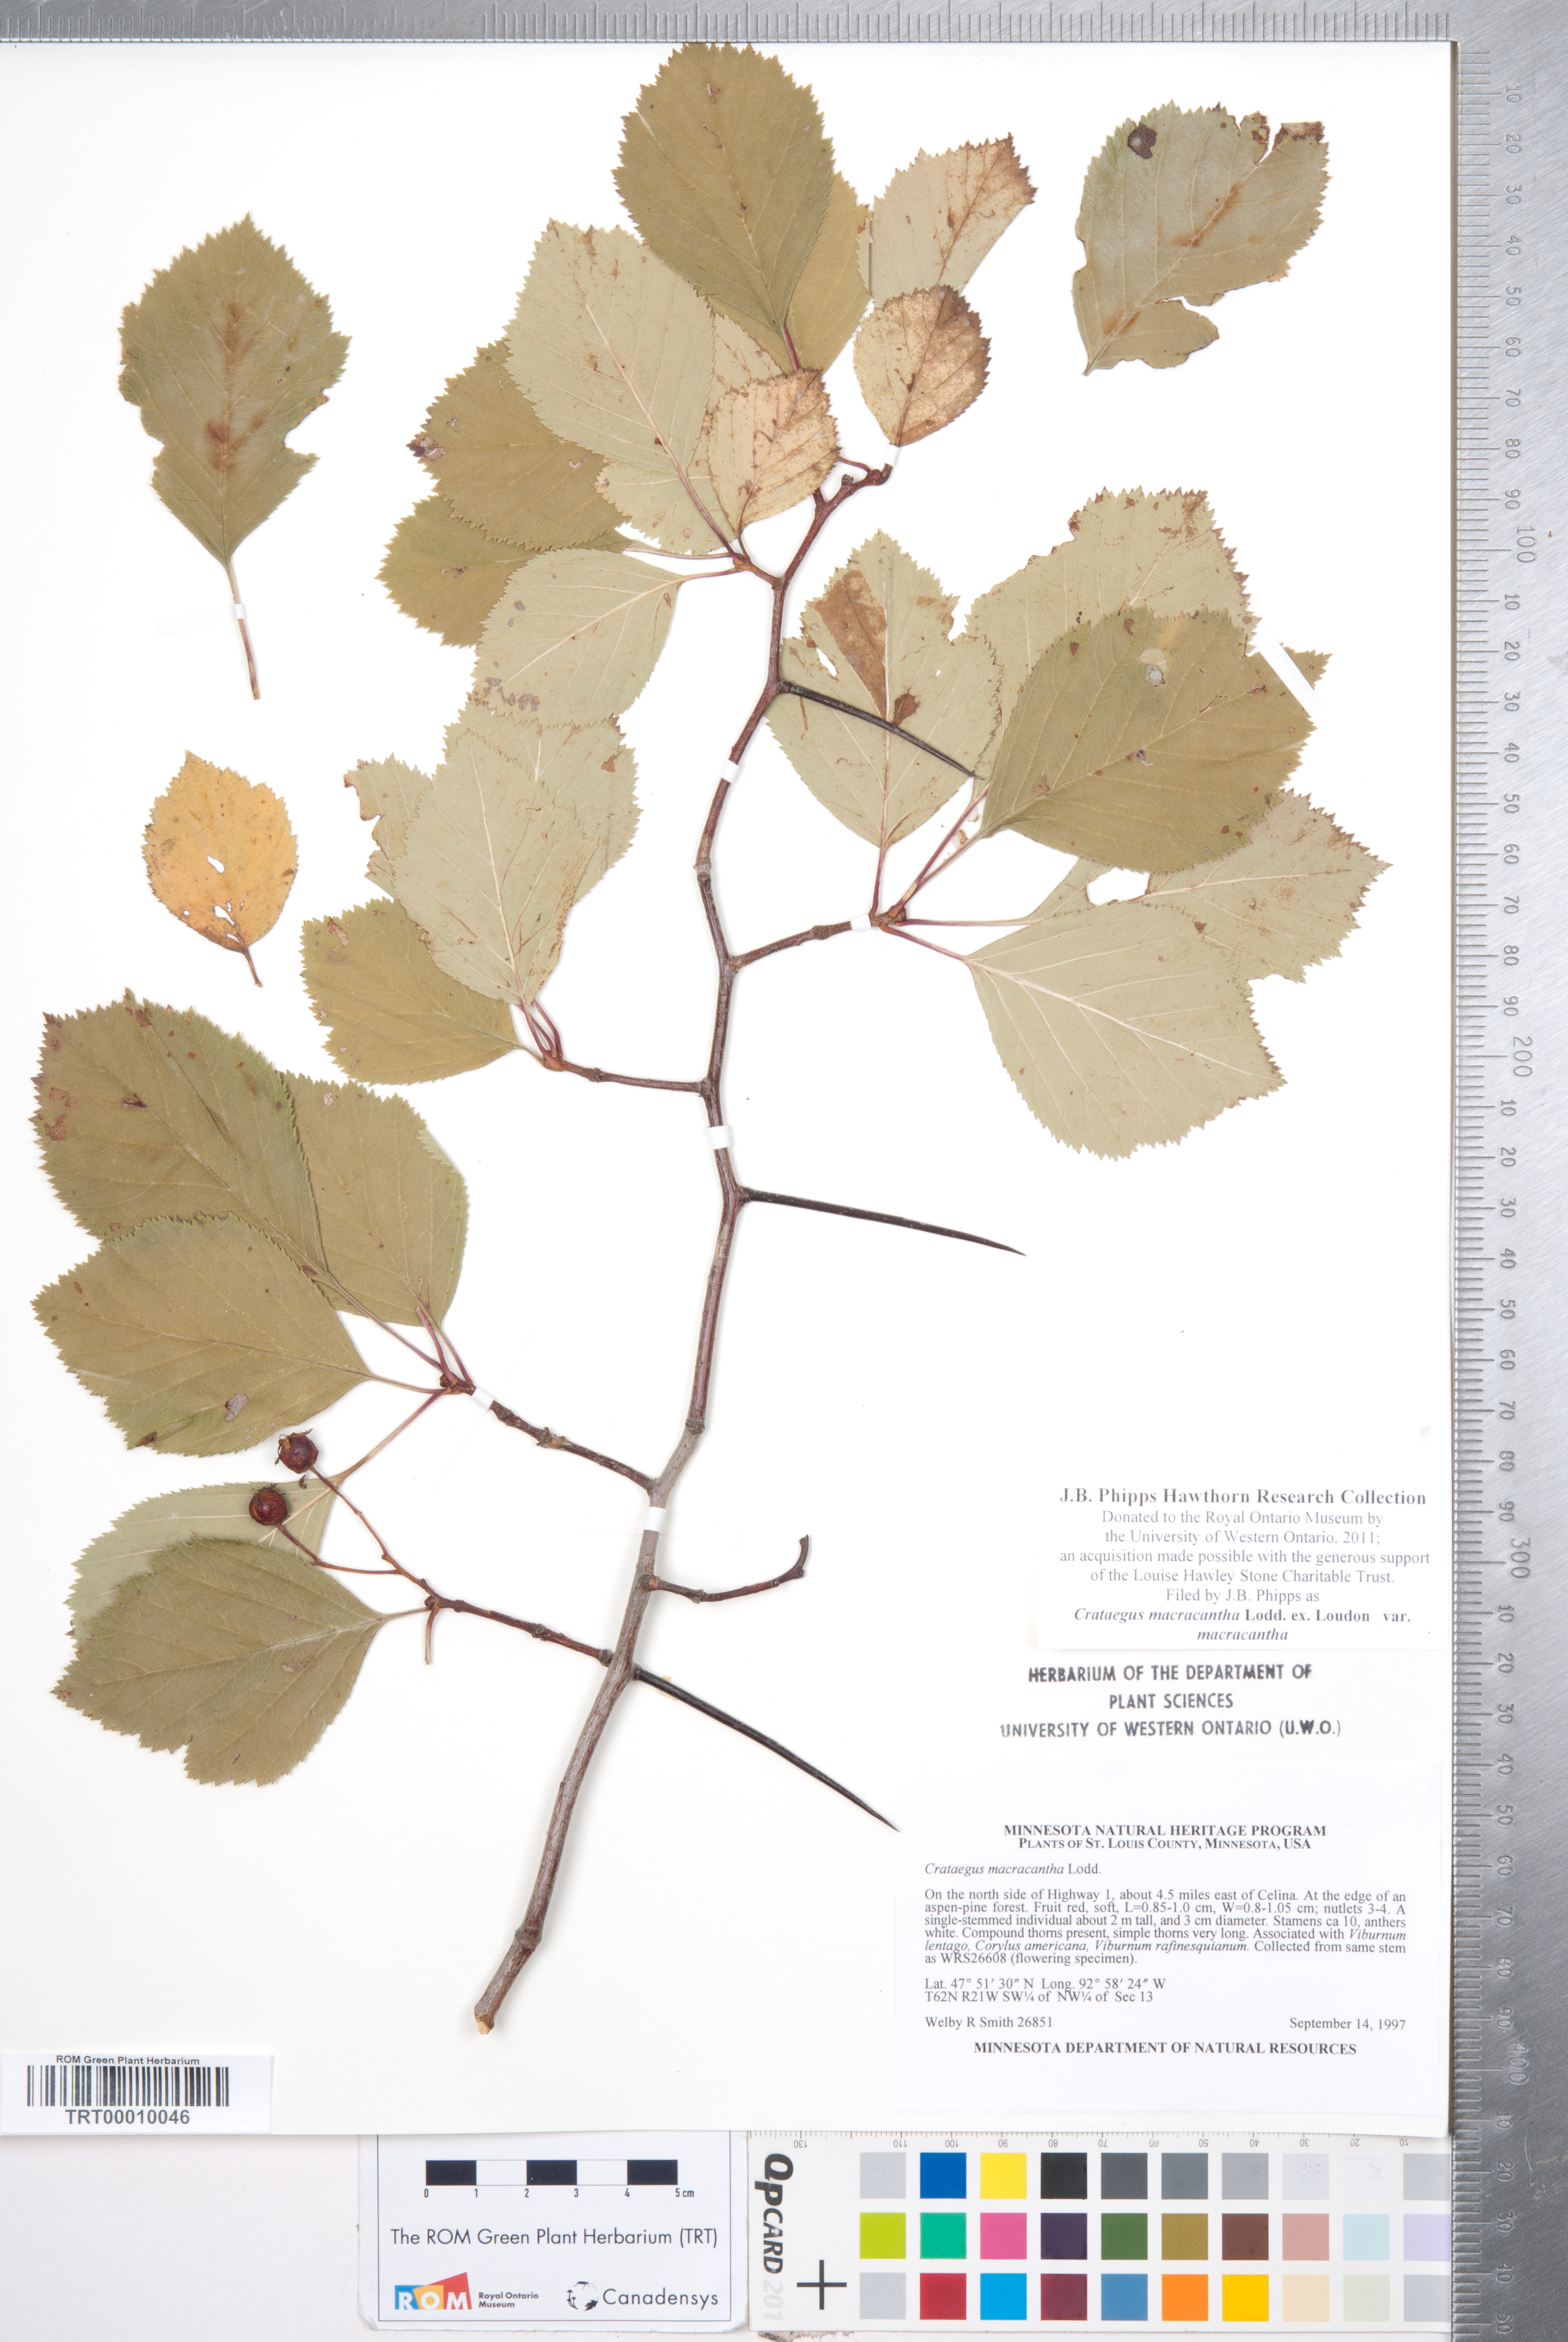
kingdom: Plantae
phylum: Tracheophyta
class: Magnoliopsida
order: Rosales
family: Rosaceae
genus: Crataegus
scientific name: Crataegus macracantha
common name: Large-thorn hawthorn
